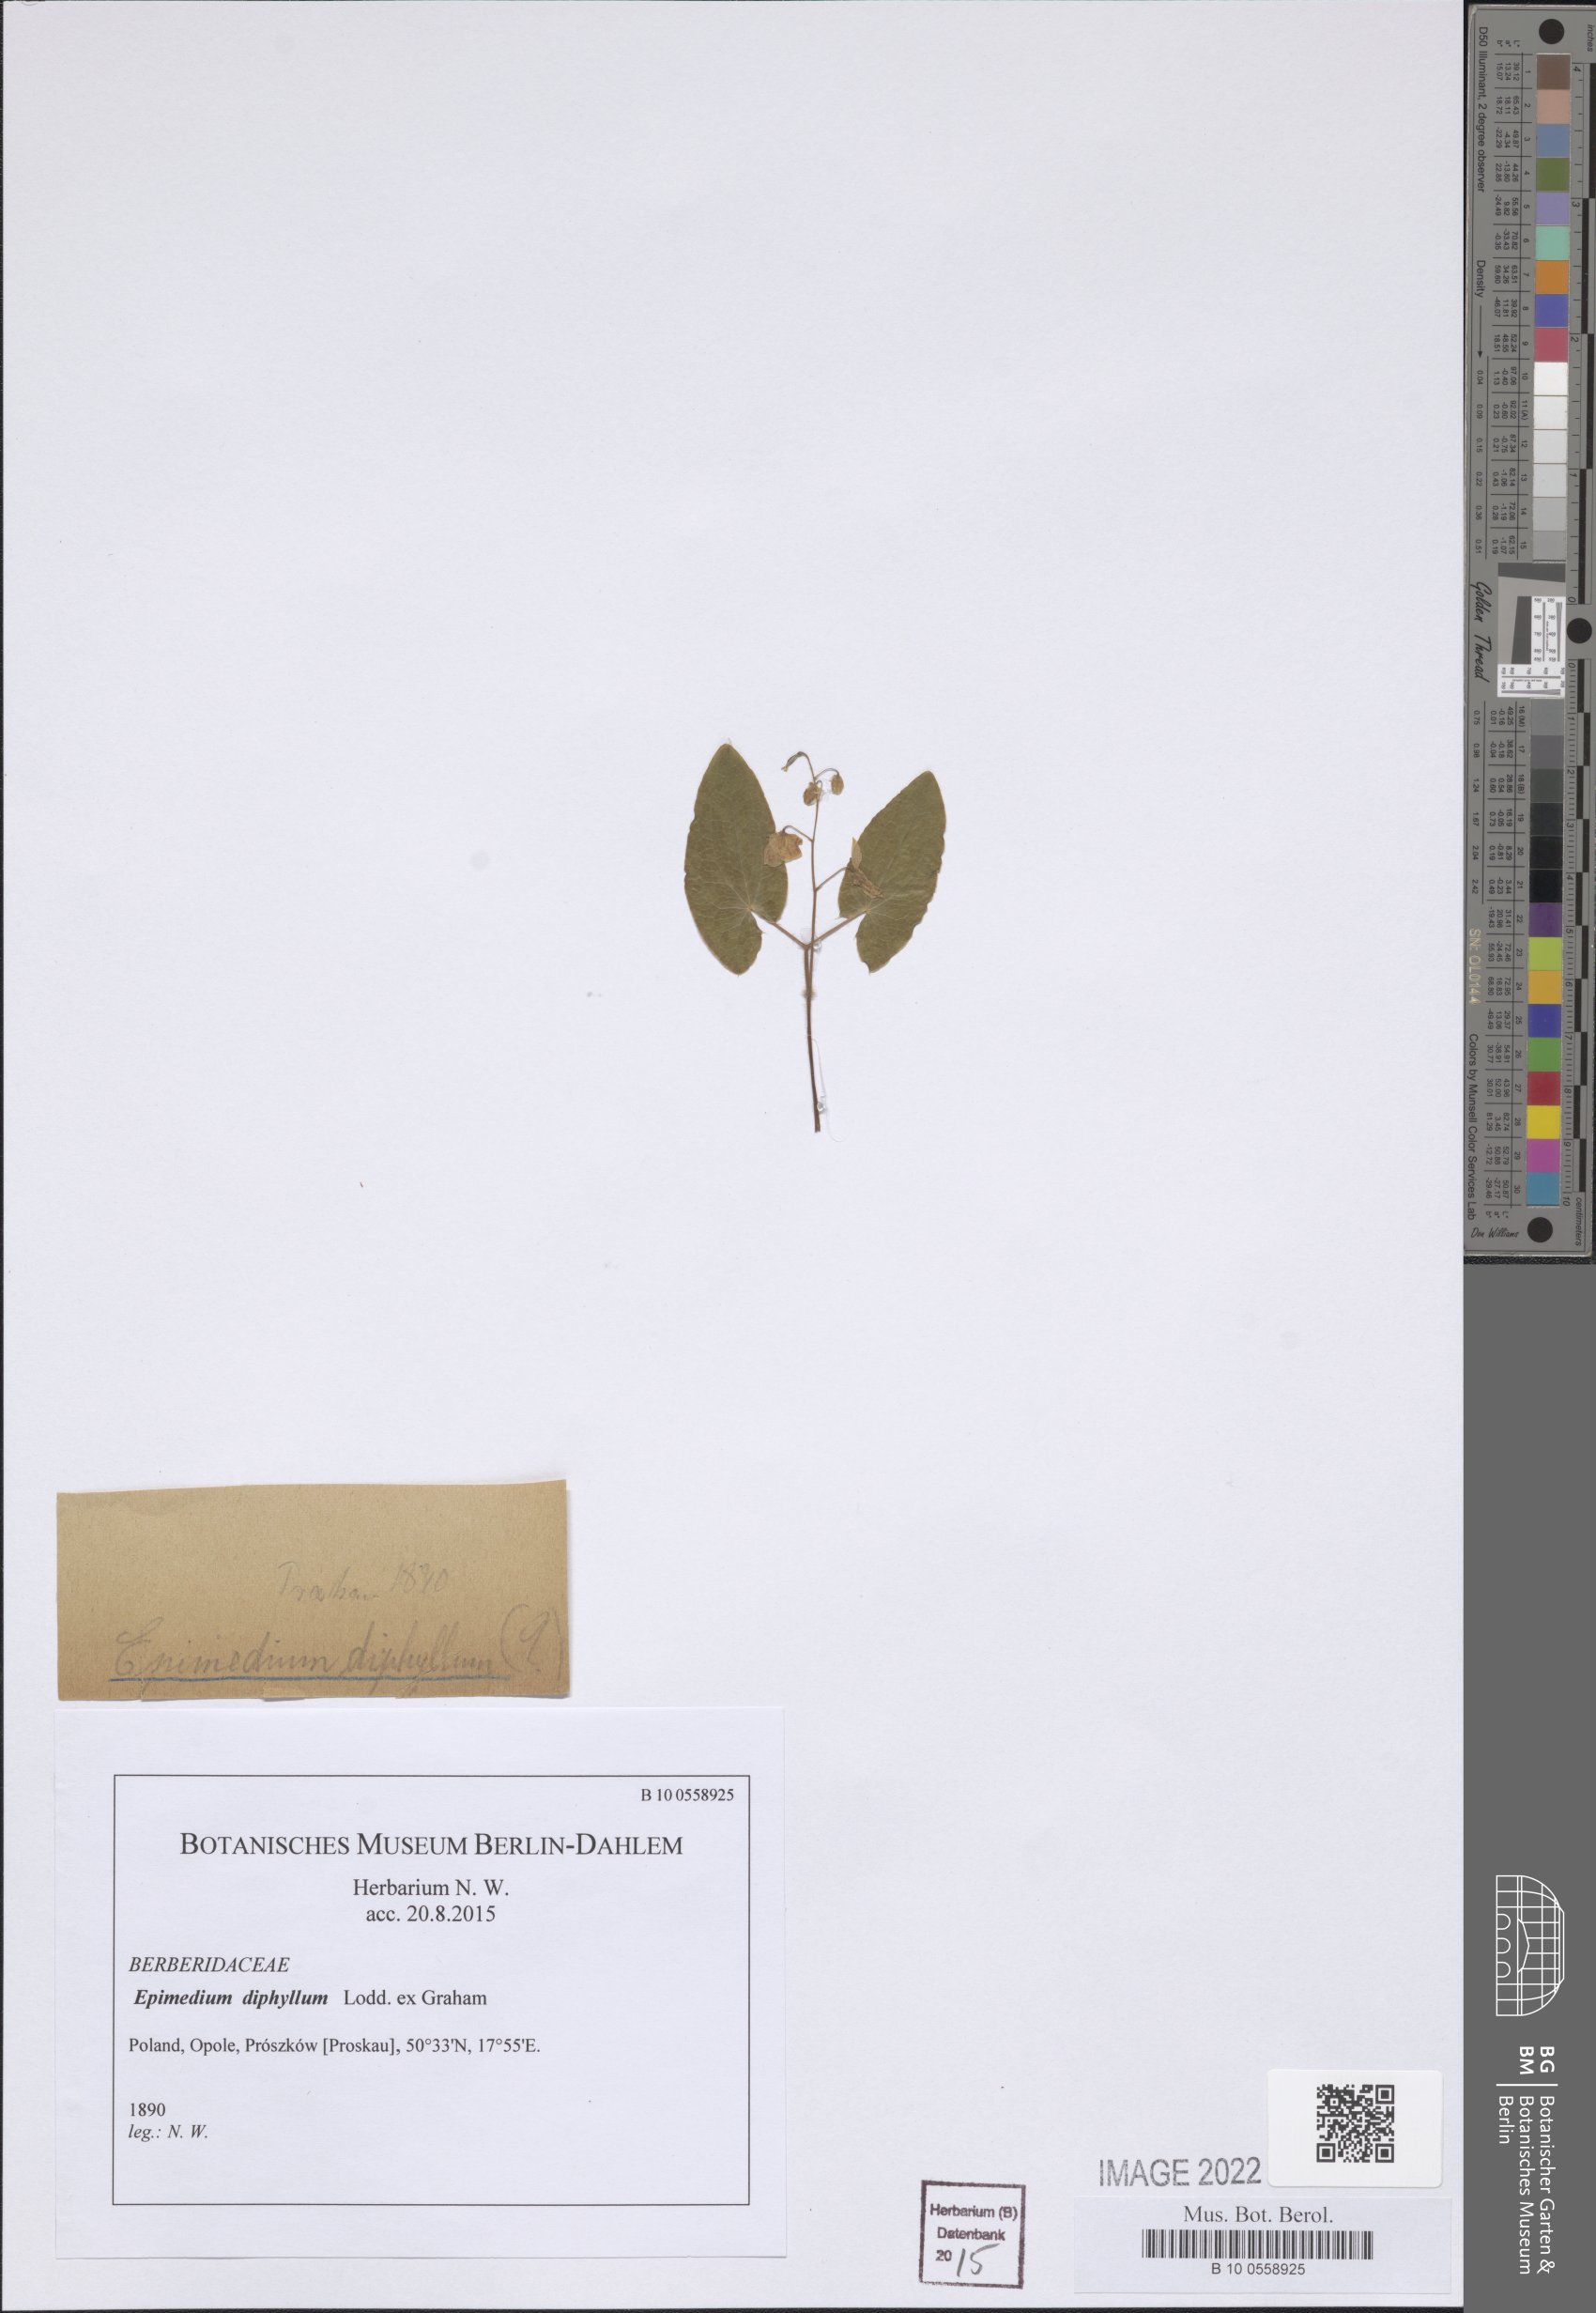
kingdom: Plantae
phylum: Tracheophyta
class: Magnoliopsida
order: Ranunculales
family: Berberidaceae
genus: Epimedium
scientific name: Epimedium diphyllum
